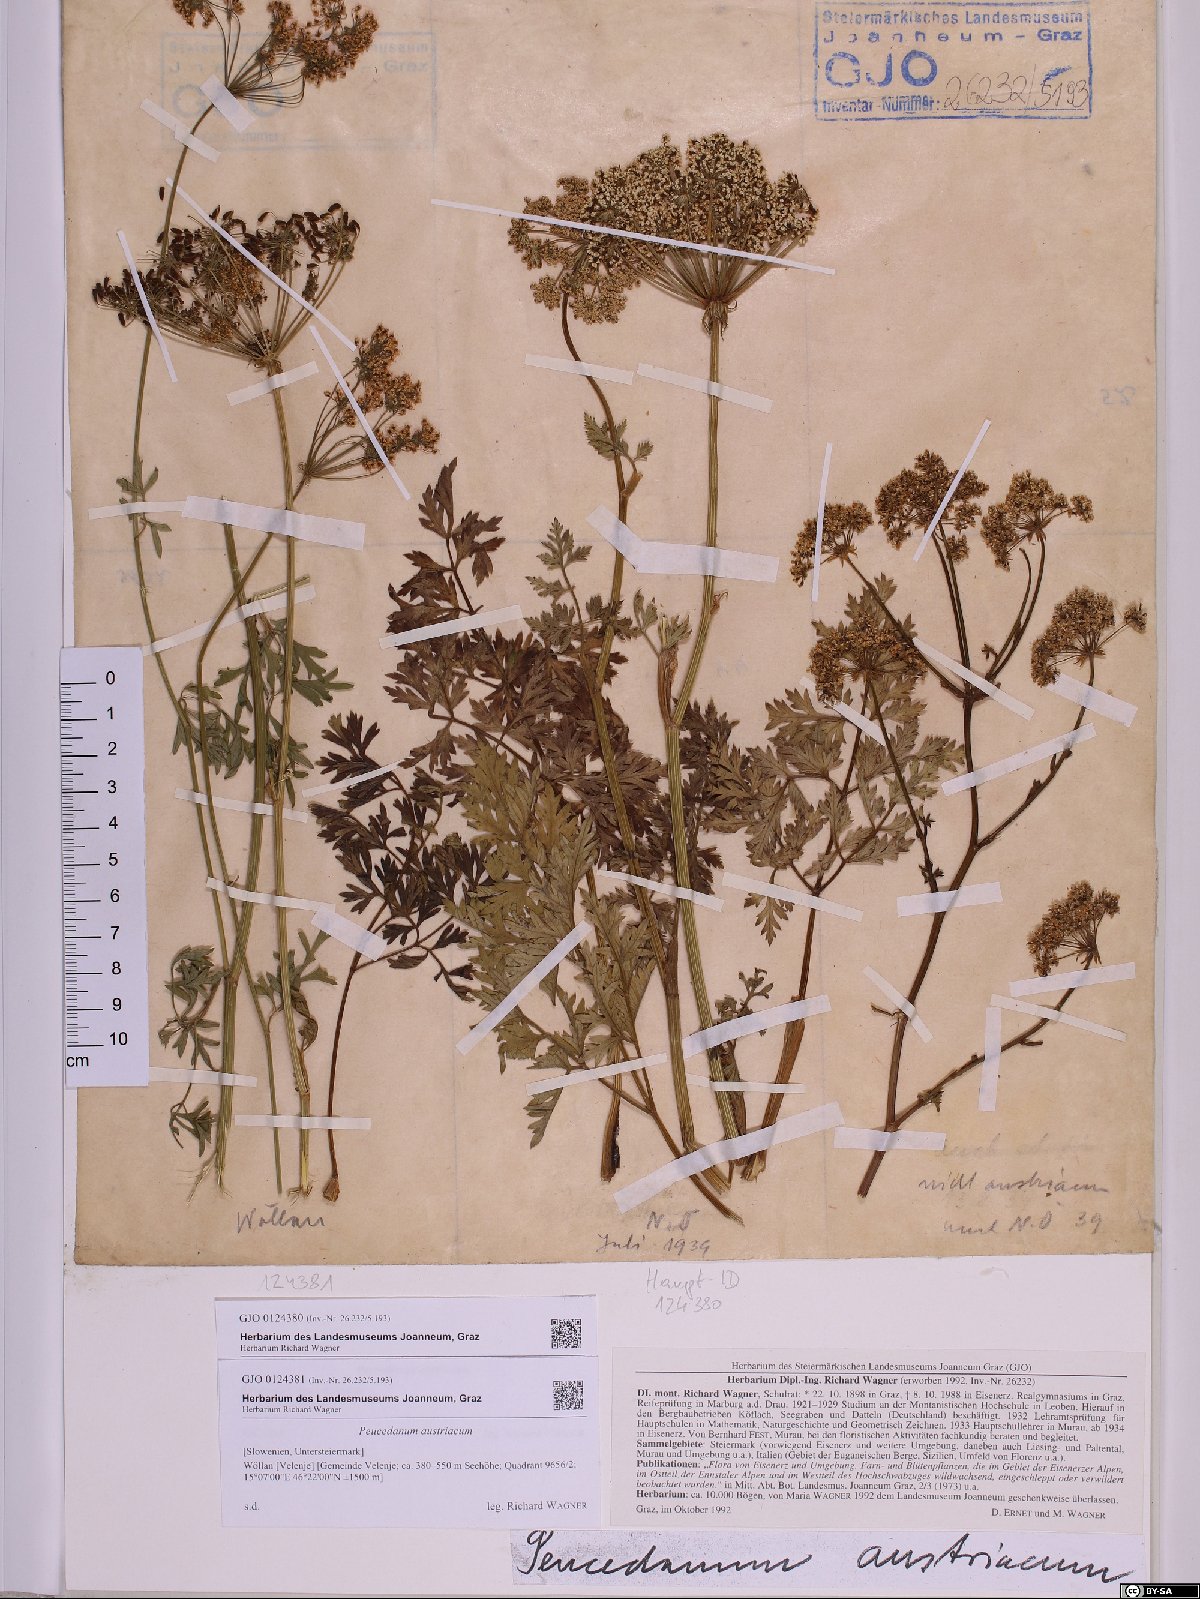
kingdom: Plantae
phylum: Tracheophyta
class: Magnoliopsida
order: Apiales
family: Apiaceae
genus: Peucedanum
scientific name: Peucedanum austriacum
